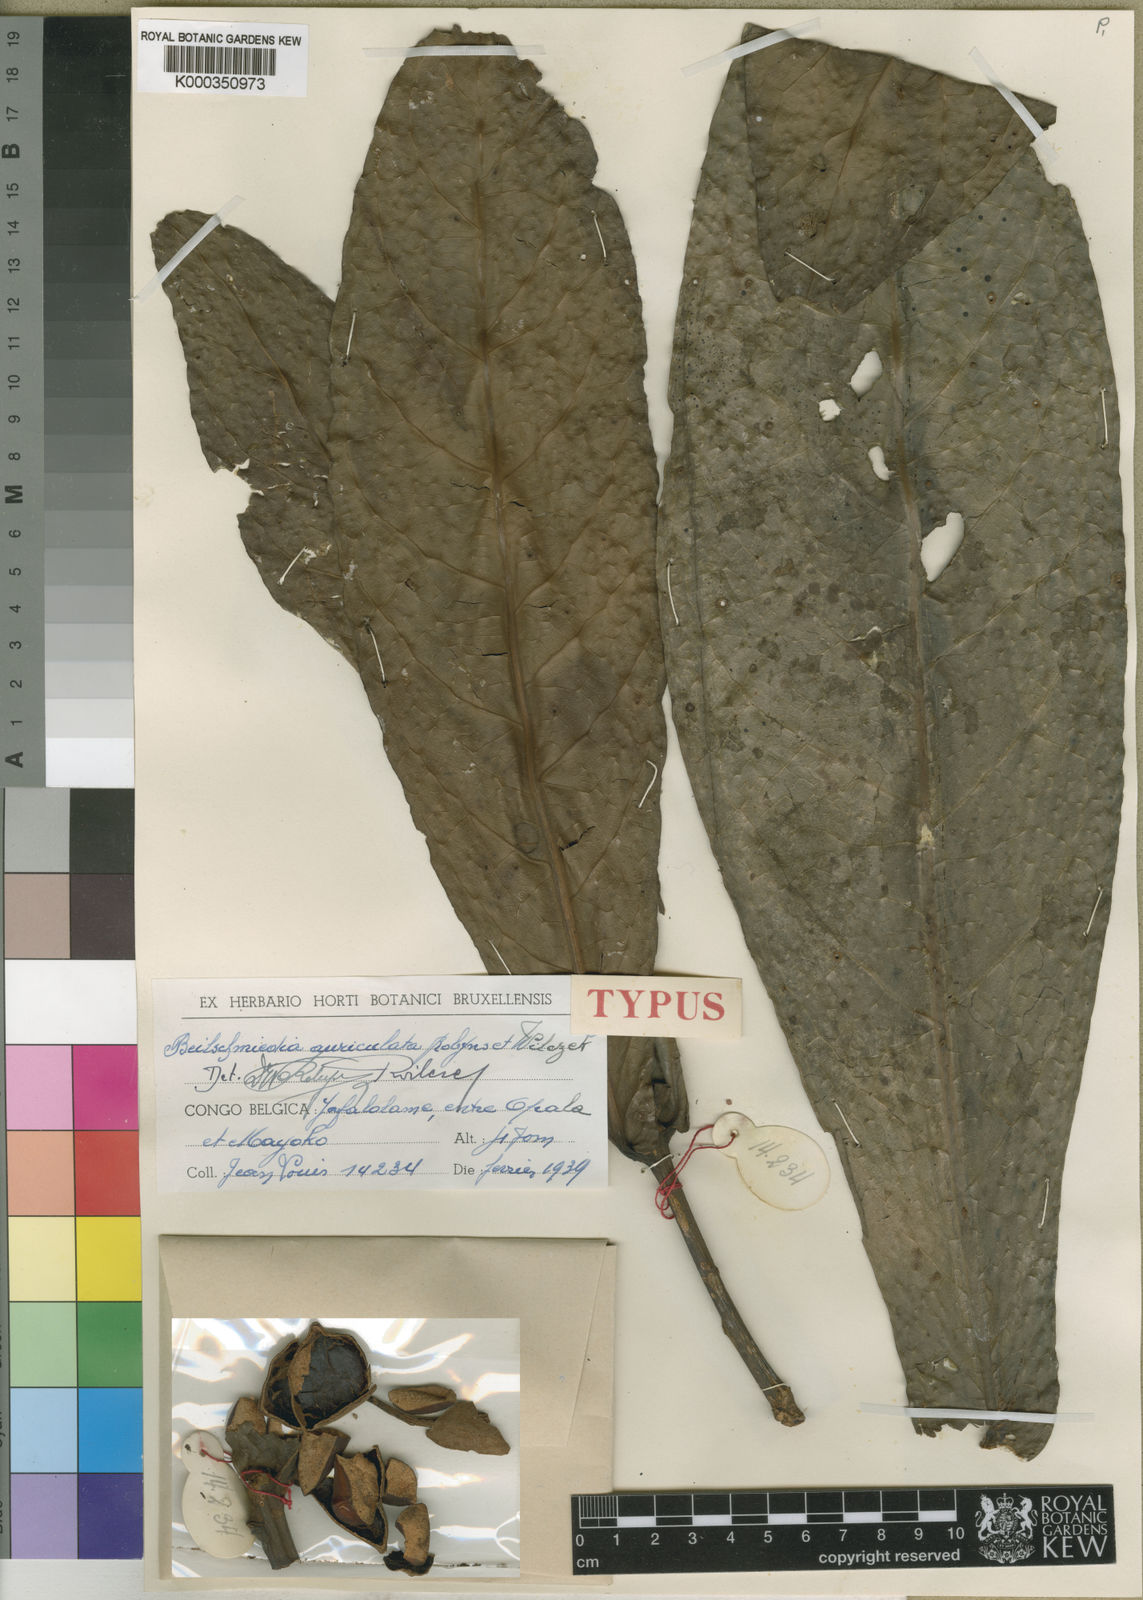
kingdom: Plantae
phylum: Tracheophyta
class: Magnoliopsida
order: Laurales
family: Lauraceae
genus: Beilschmiedia
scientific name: Beilschmiedia auriculata
